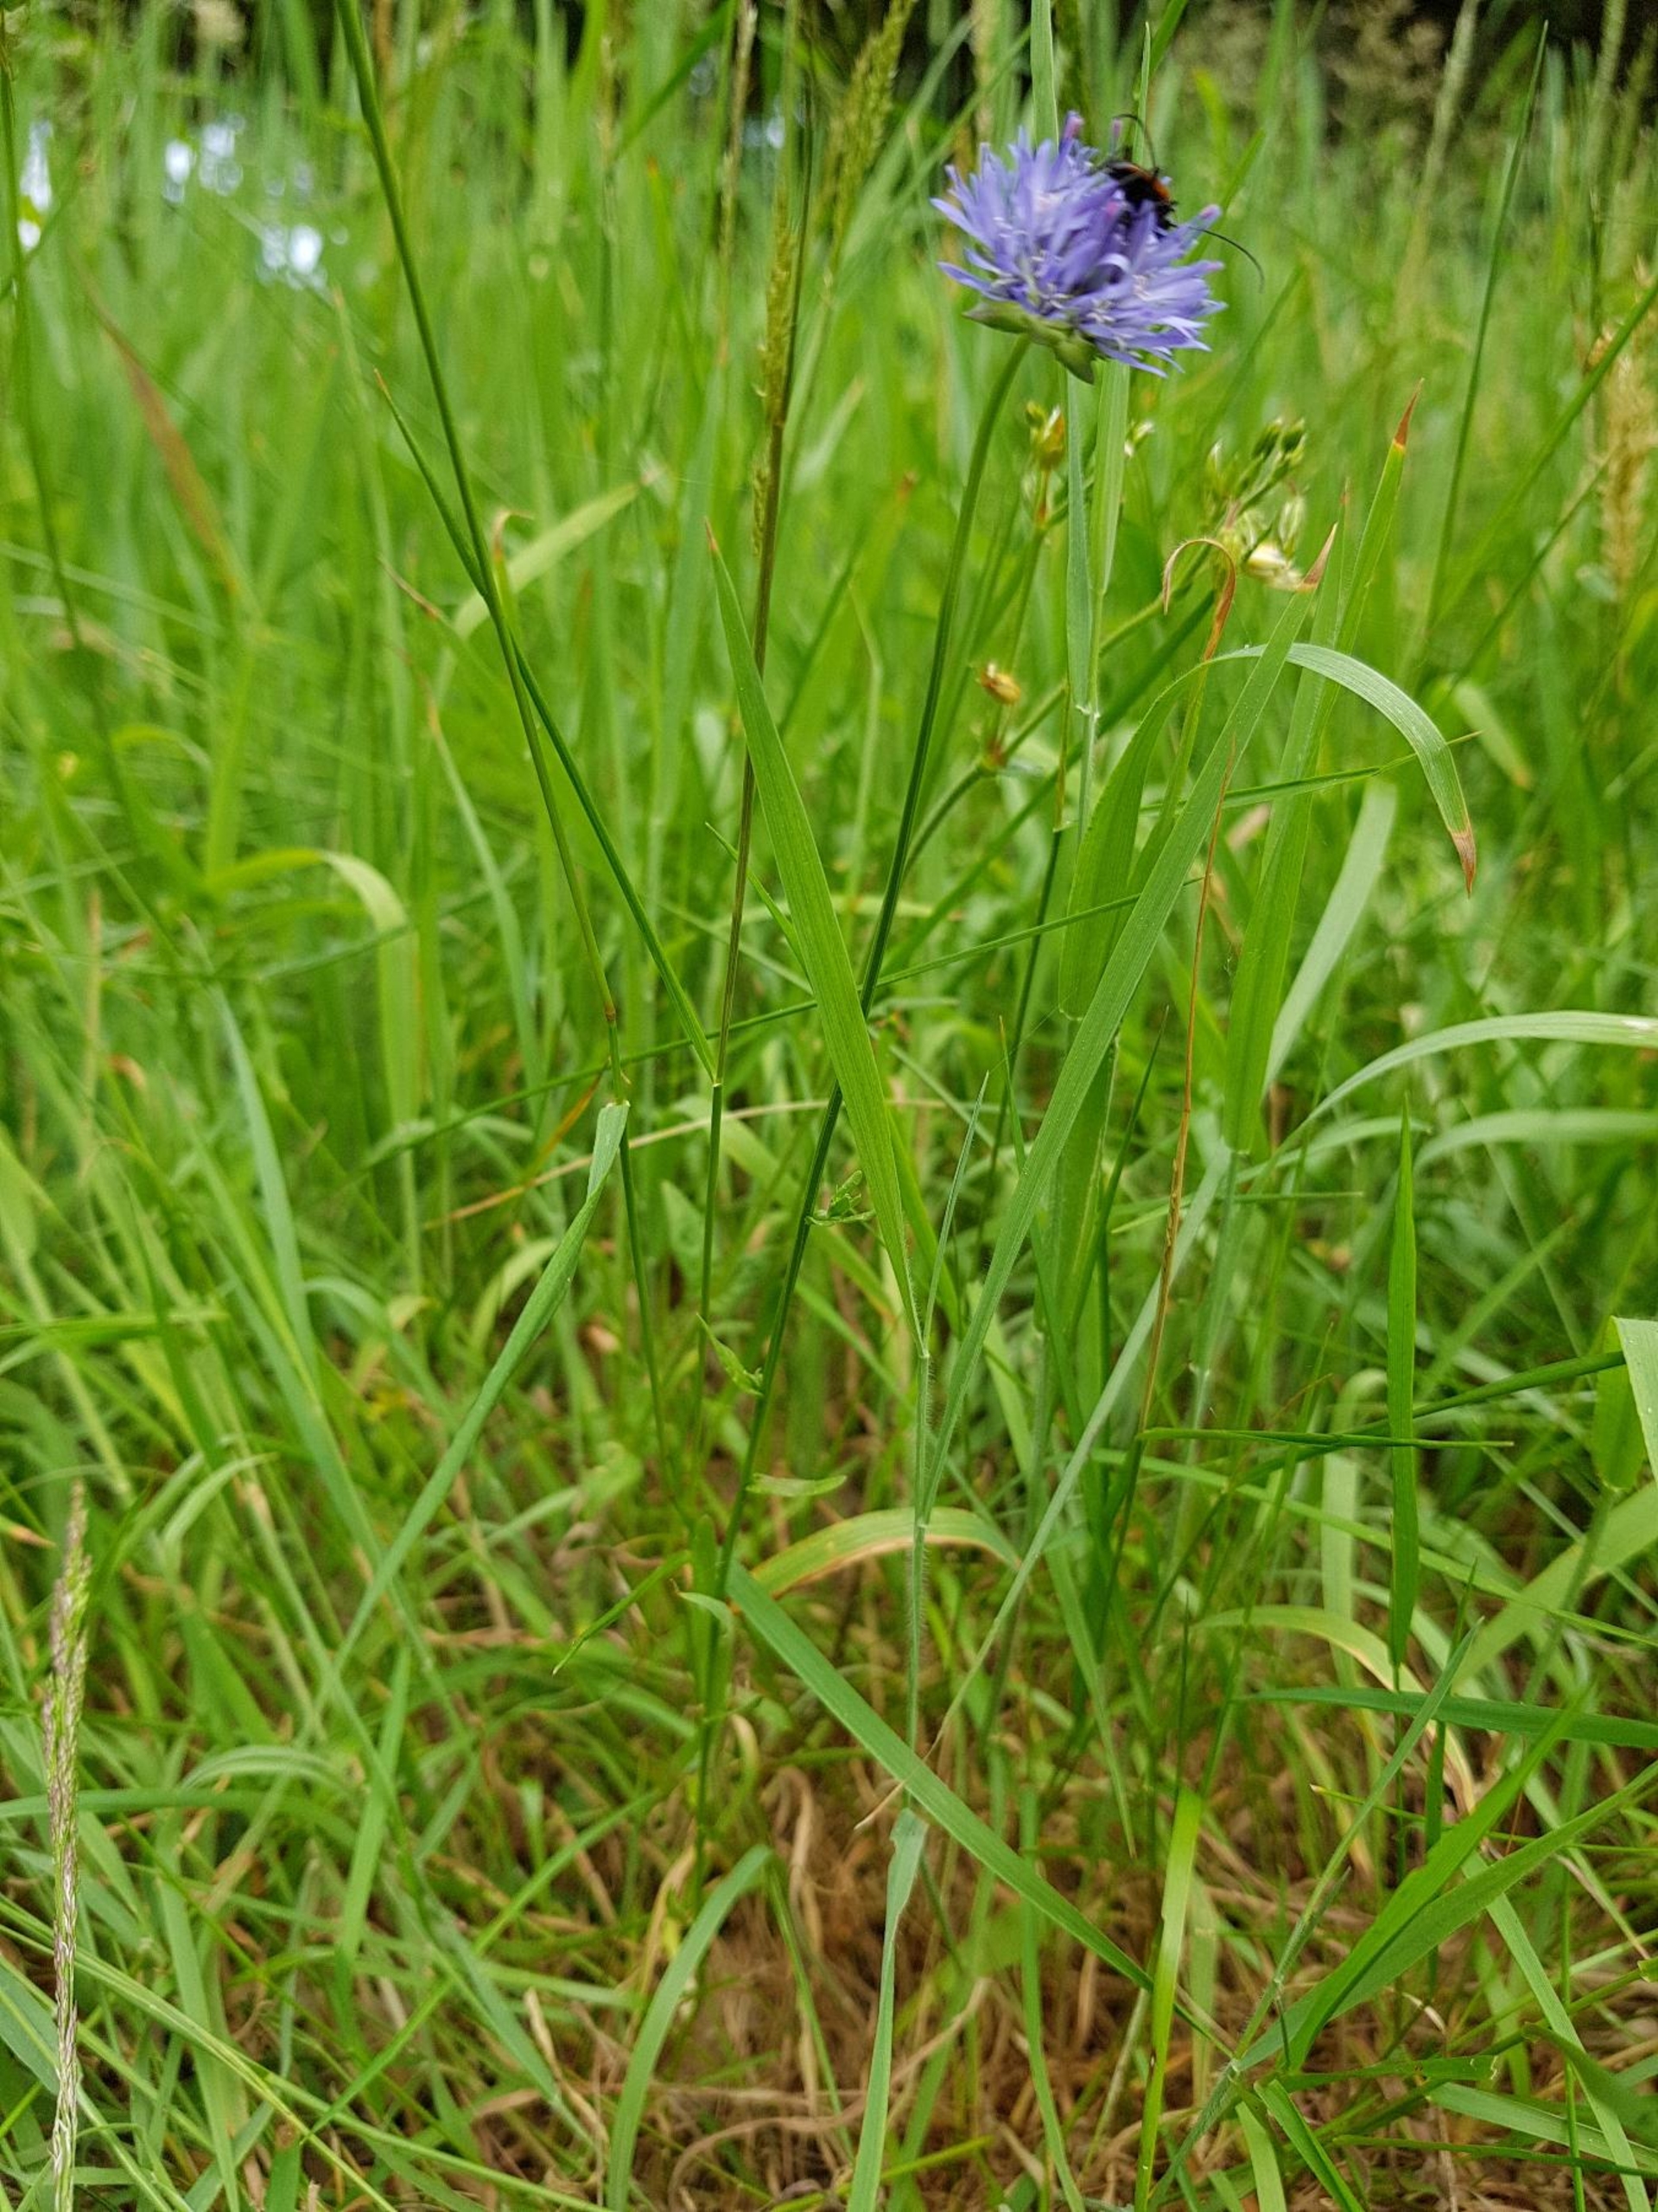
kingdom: Plantae
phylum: Tracheophyta
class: Magnoliopsida
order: Asterales
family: Campanulaceae
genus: Jasione
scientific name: Jasione montana
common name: Blåmunke
